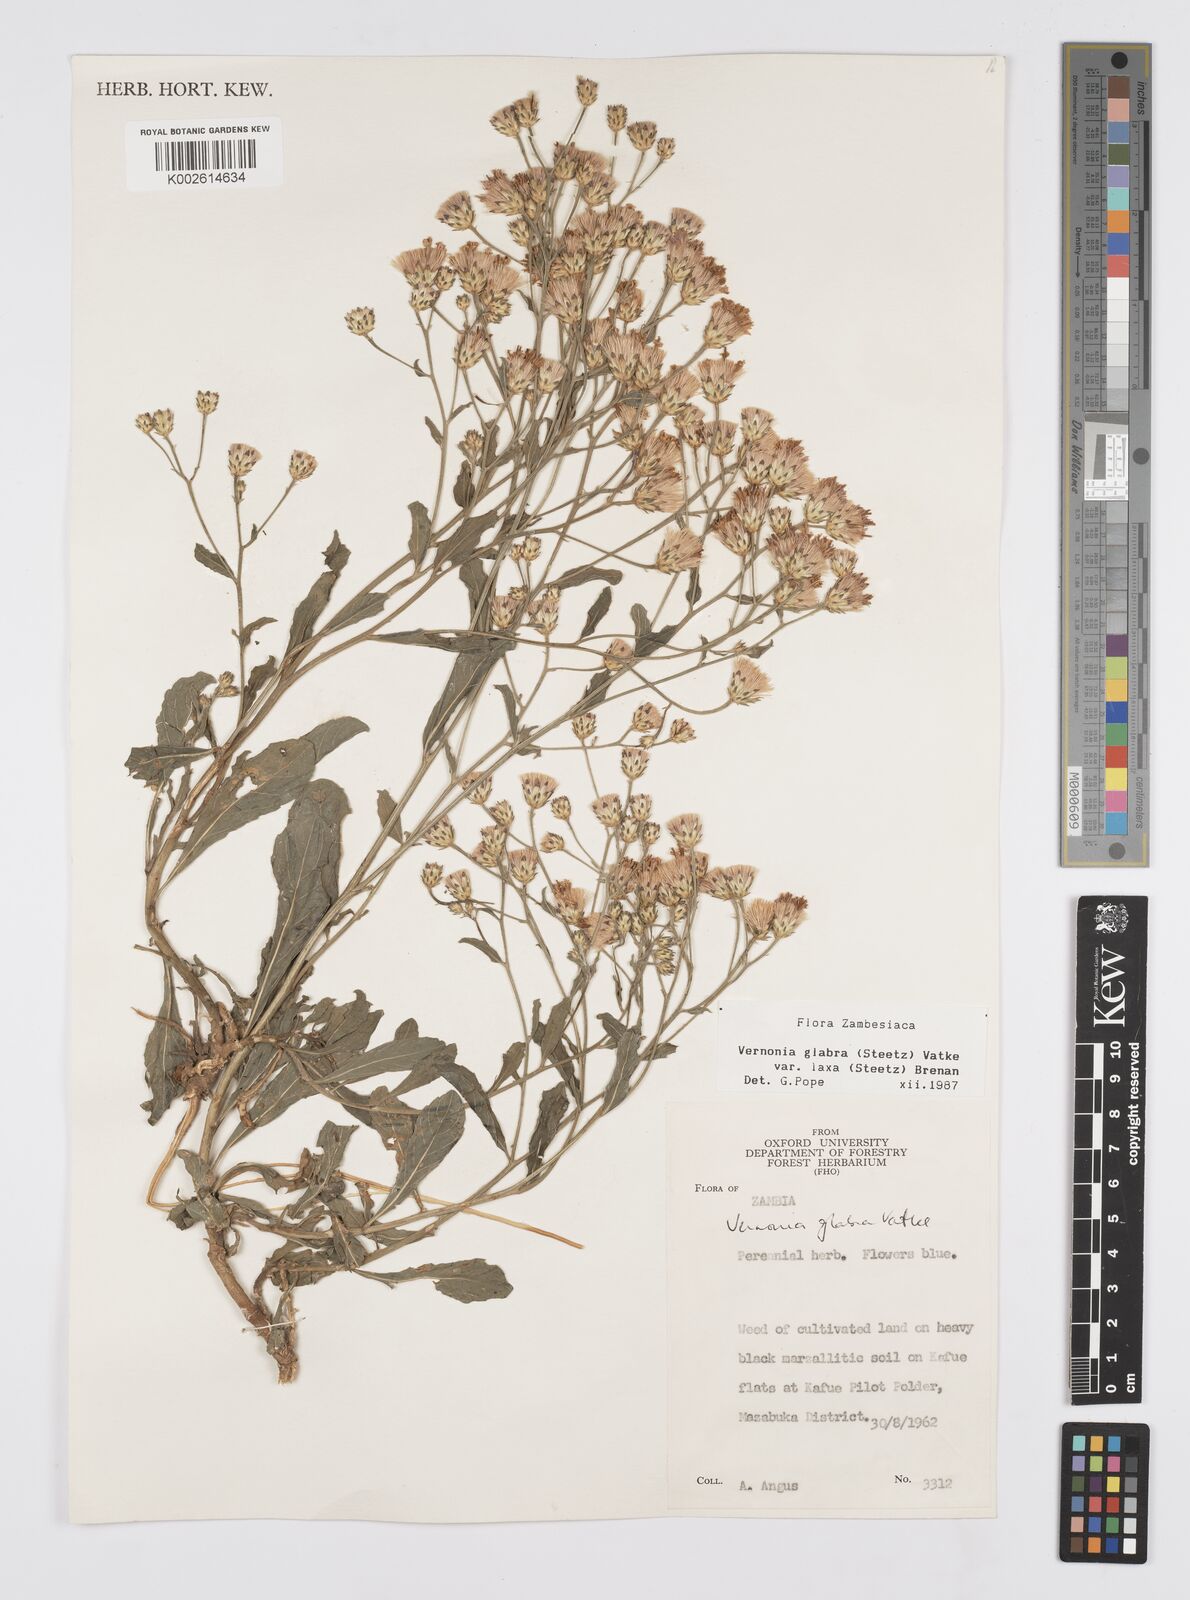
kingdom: Plantae
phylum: Tracheophyta
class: Magnoliopsida
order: Asterales
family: Asteraceae
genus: Linzia
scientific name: Linzia glabra
